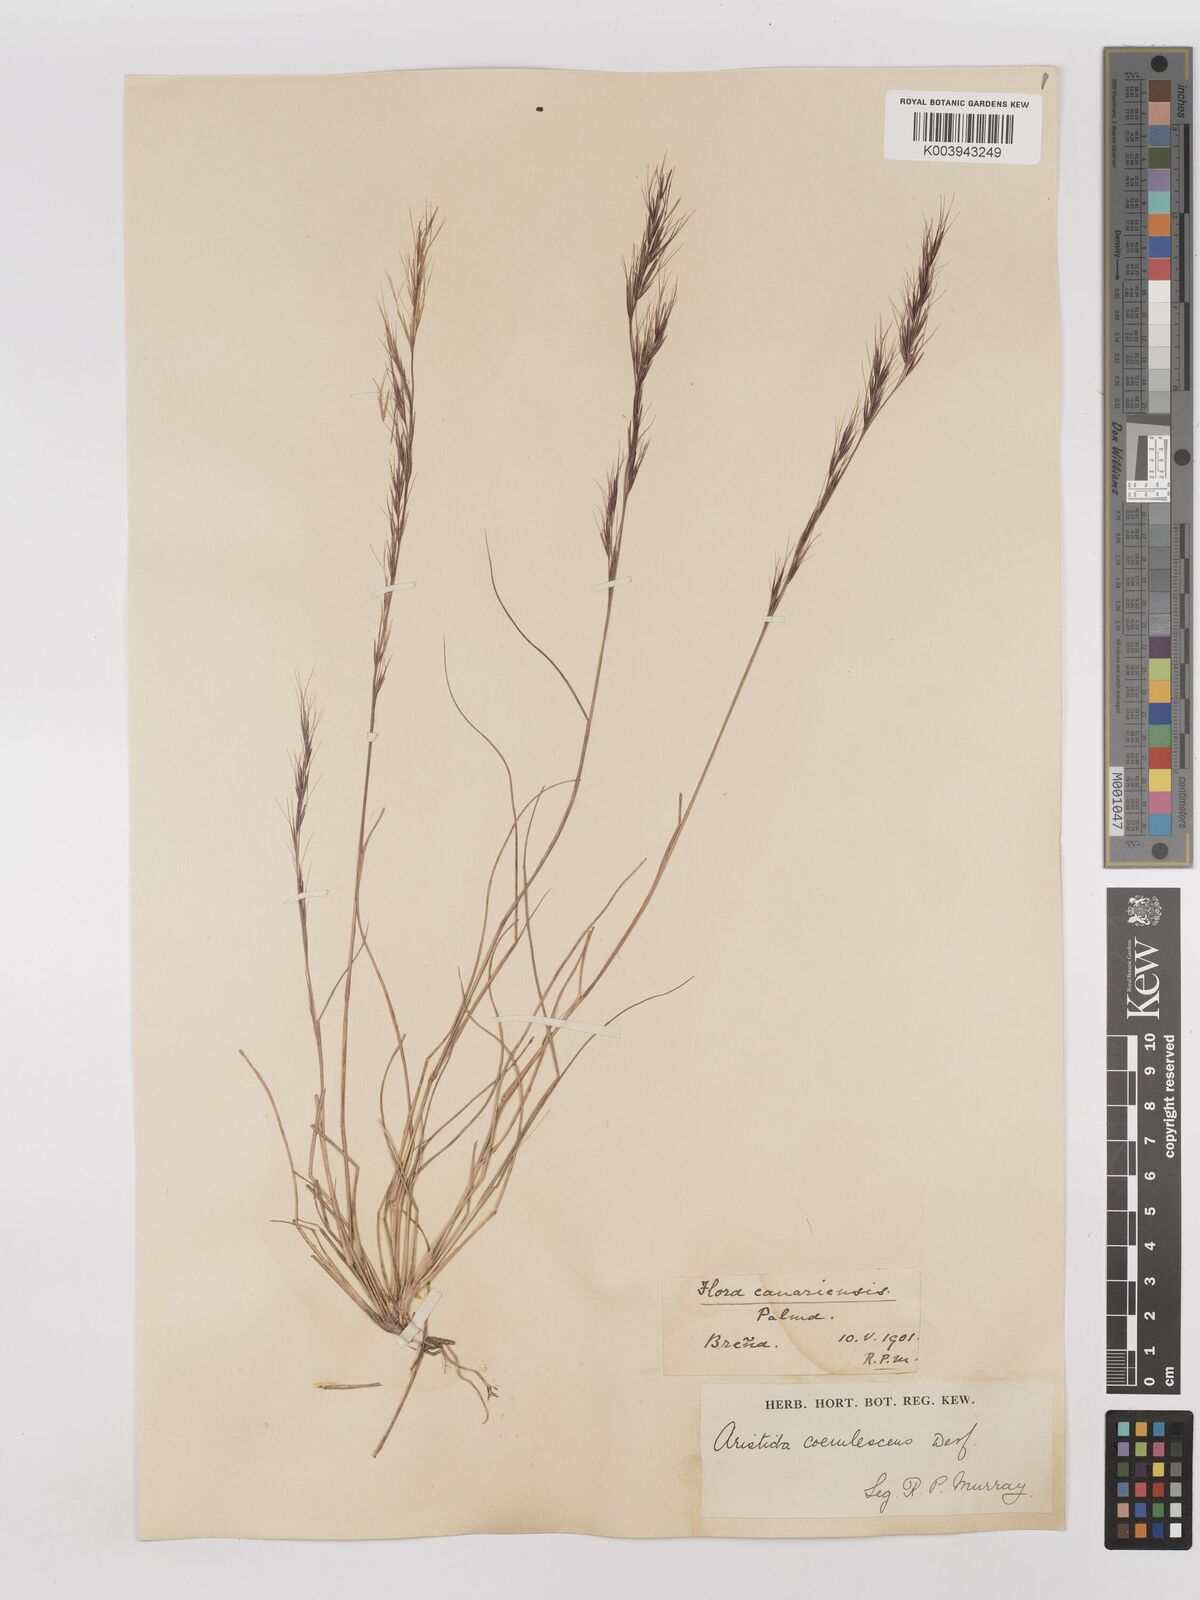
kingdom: Plantae
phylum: Tracheophyta
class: Liliopsida
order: Poales
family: Poaceae
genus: Aristida
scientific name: Aristida adscensionis
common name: Sixweeks threeawn
